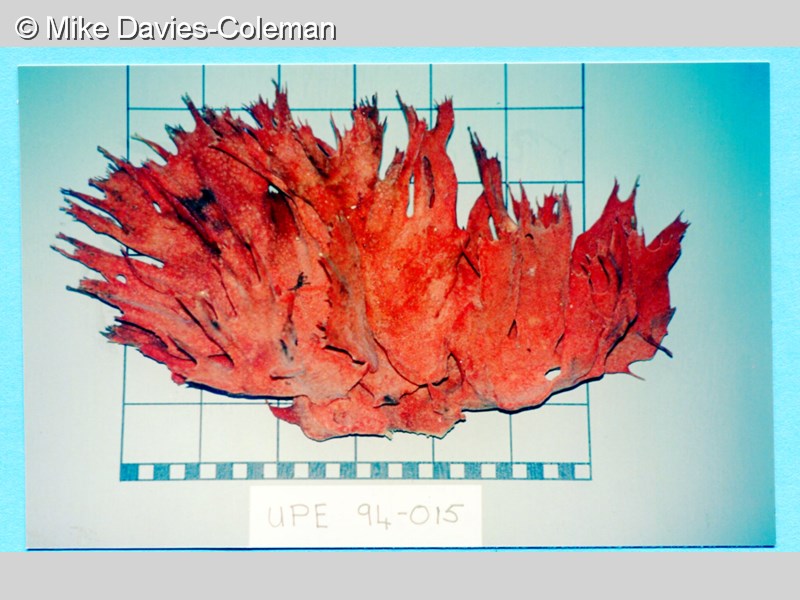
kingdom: Animalia
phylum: Porifera
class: Demospongiae
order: Poecilosclerida
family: Isodictyidae
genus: Isodictya
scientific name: Isodictya grandis
